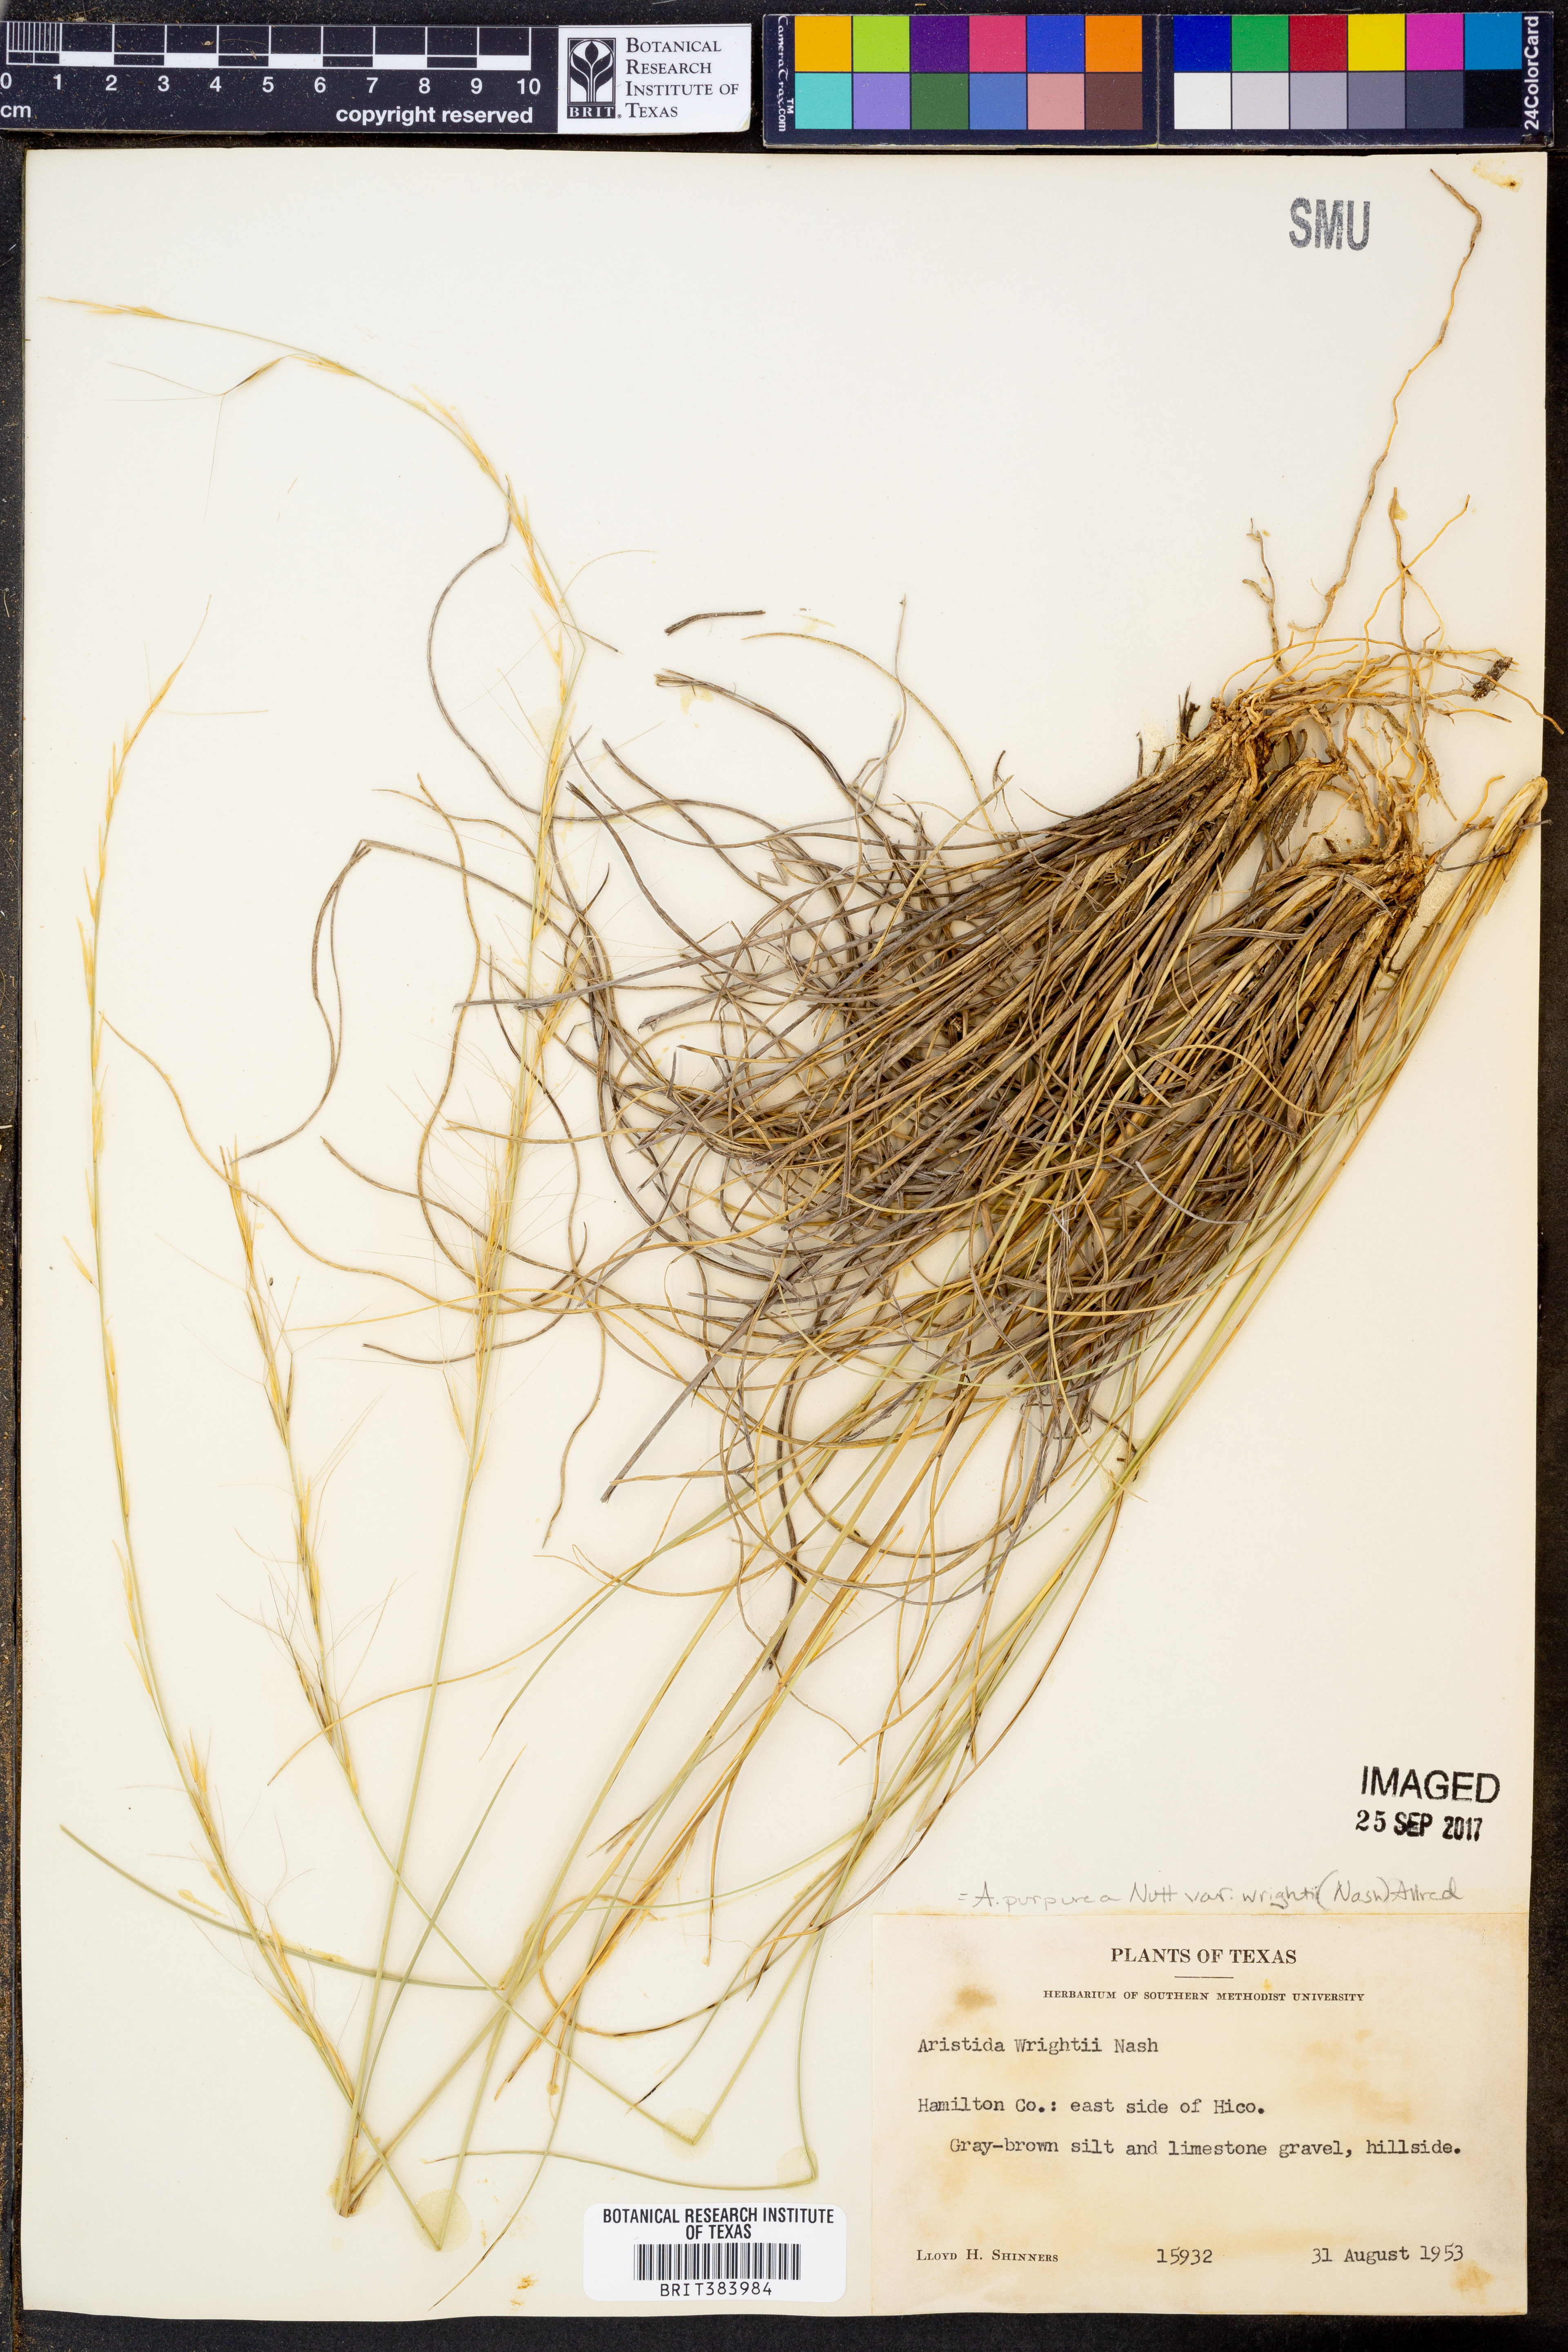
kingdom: Plantae
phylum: Tracheophyta
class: Liliopsida
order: Poales
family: Poaceae
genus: Aristida
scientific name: Aristida wrightii
